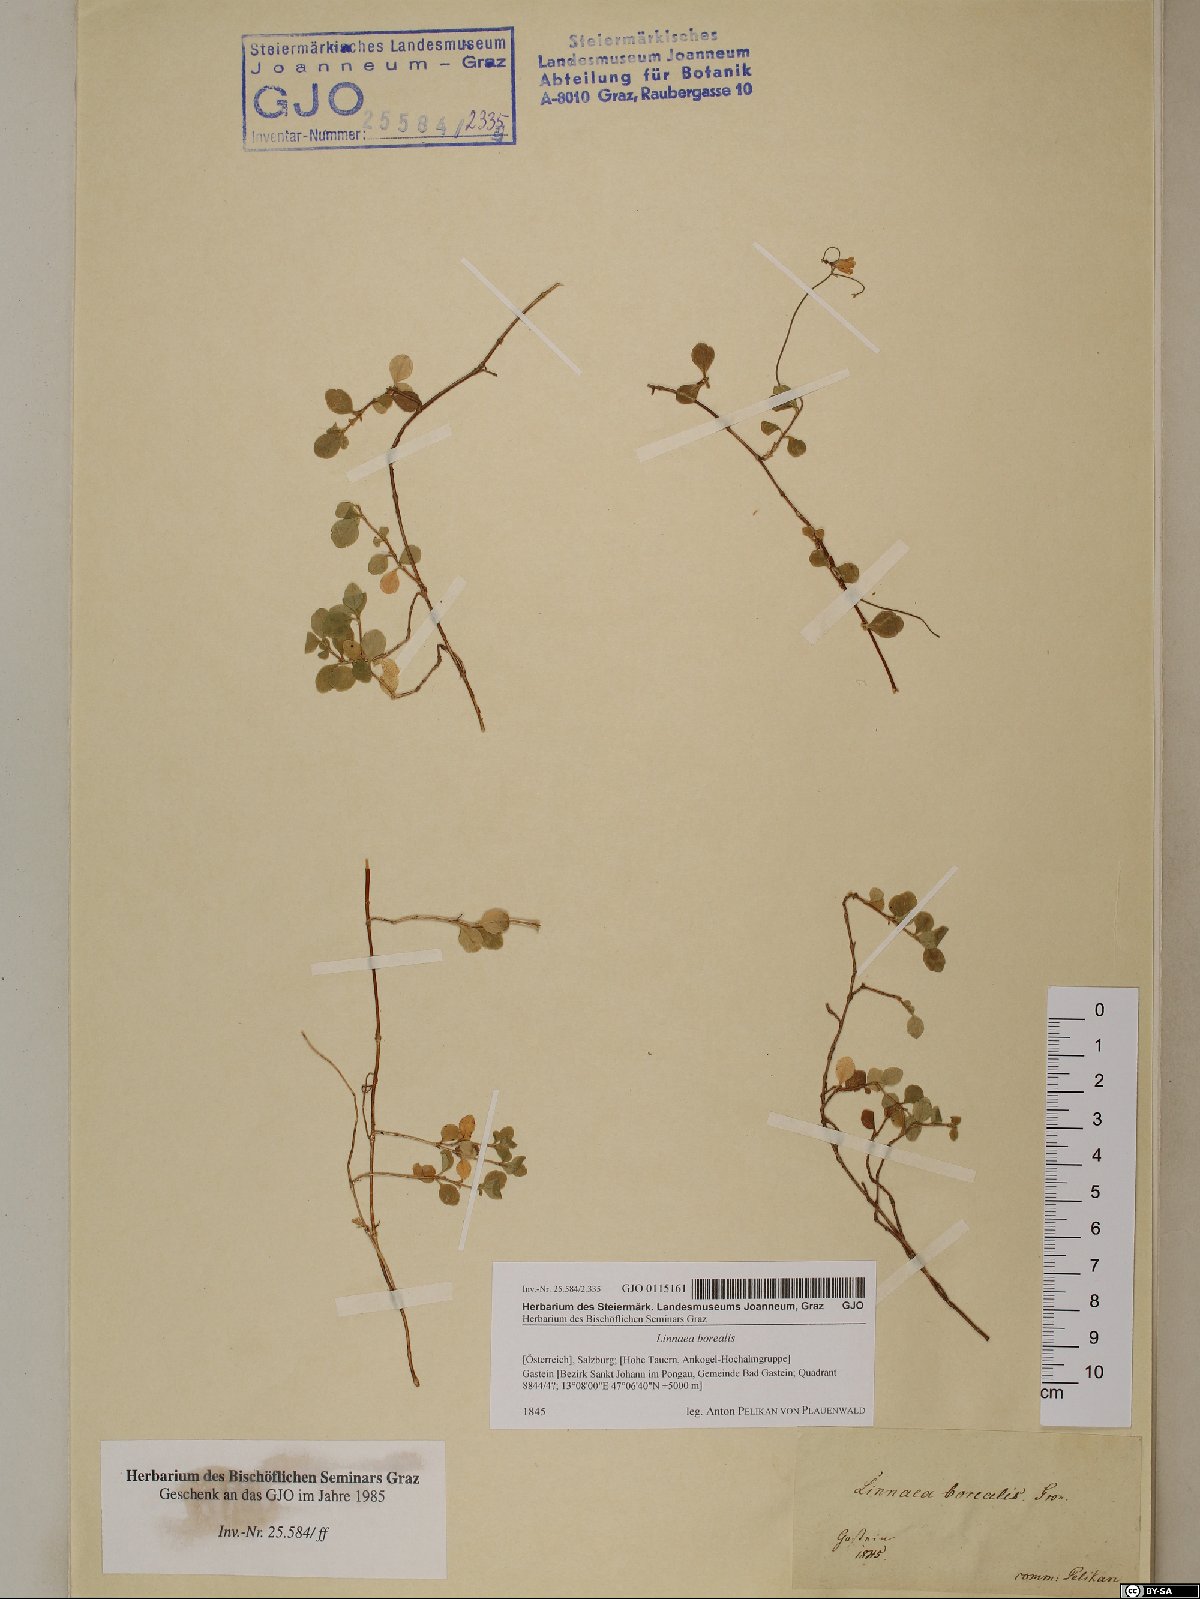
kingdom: Plantae
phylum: Tracheophyta
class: Magnoliopsida
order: Dipsacales
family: Caprifoliaceae
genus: Linnaea
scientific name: Linnaea borealis
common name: Twinflower
